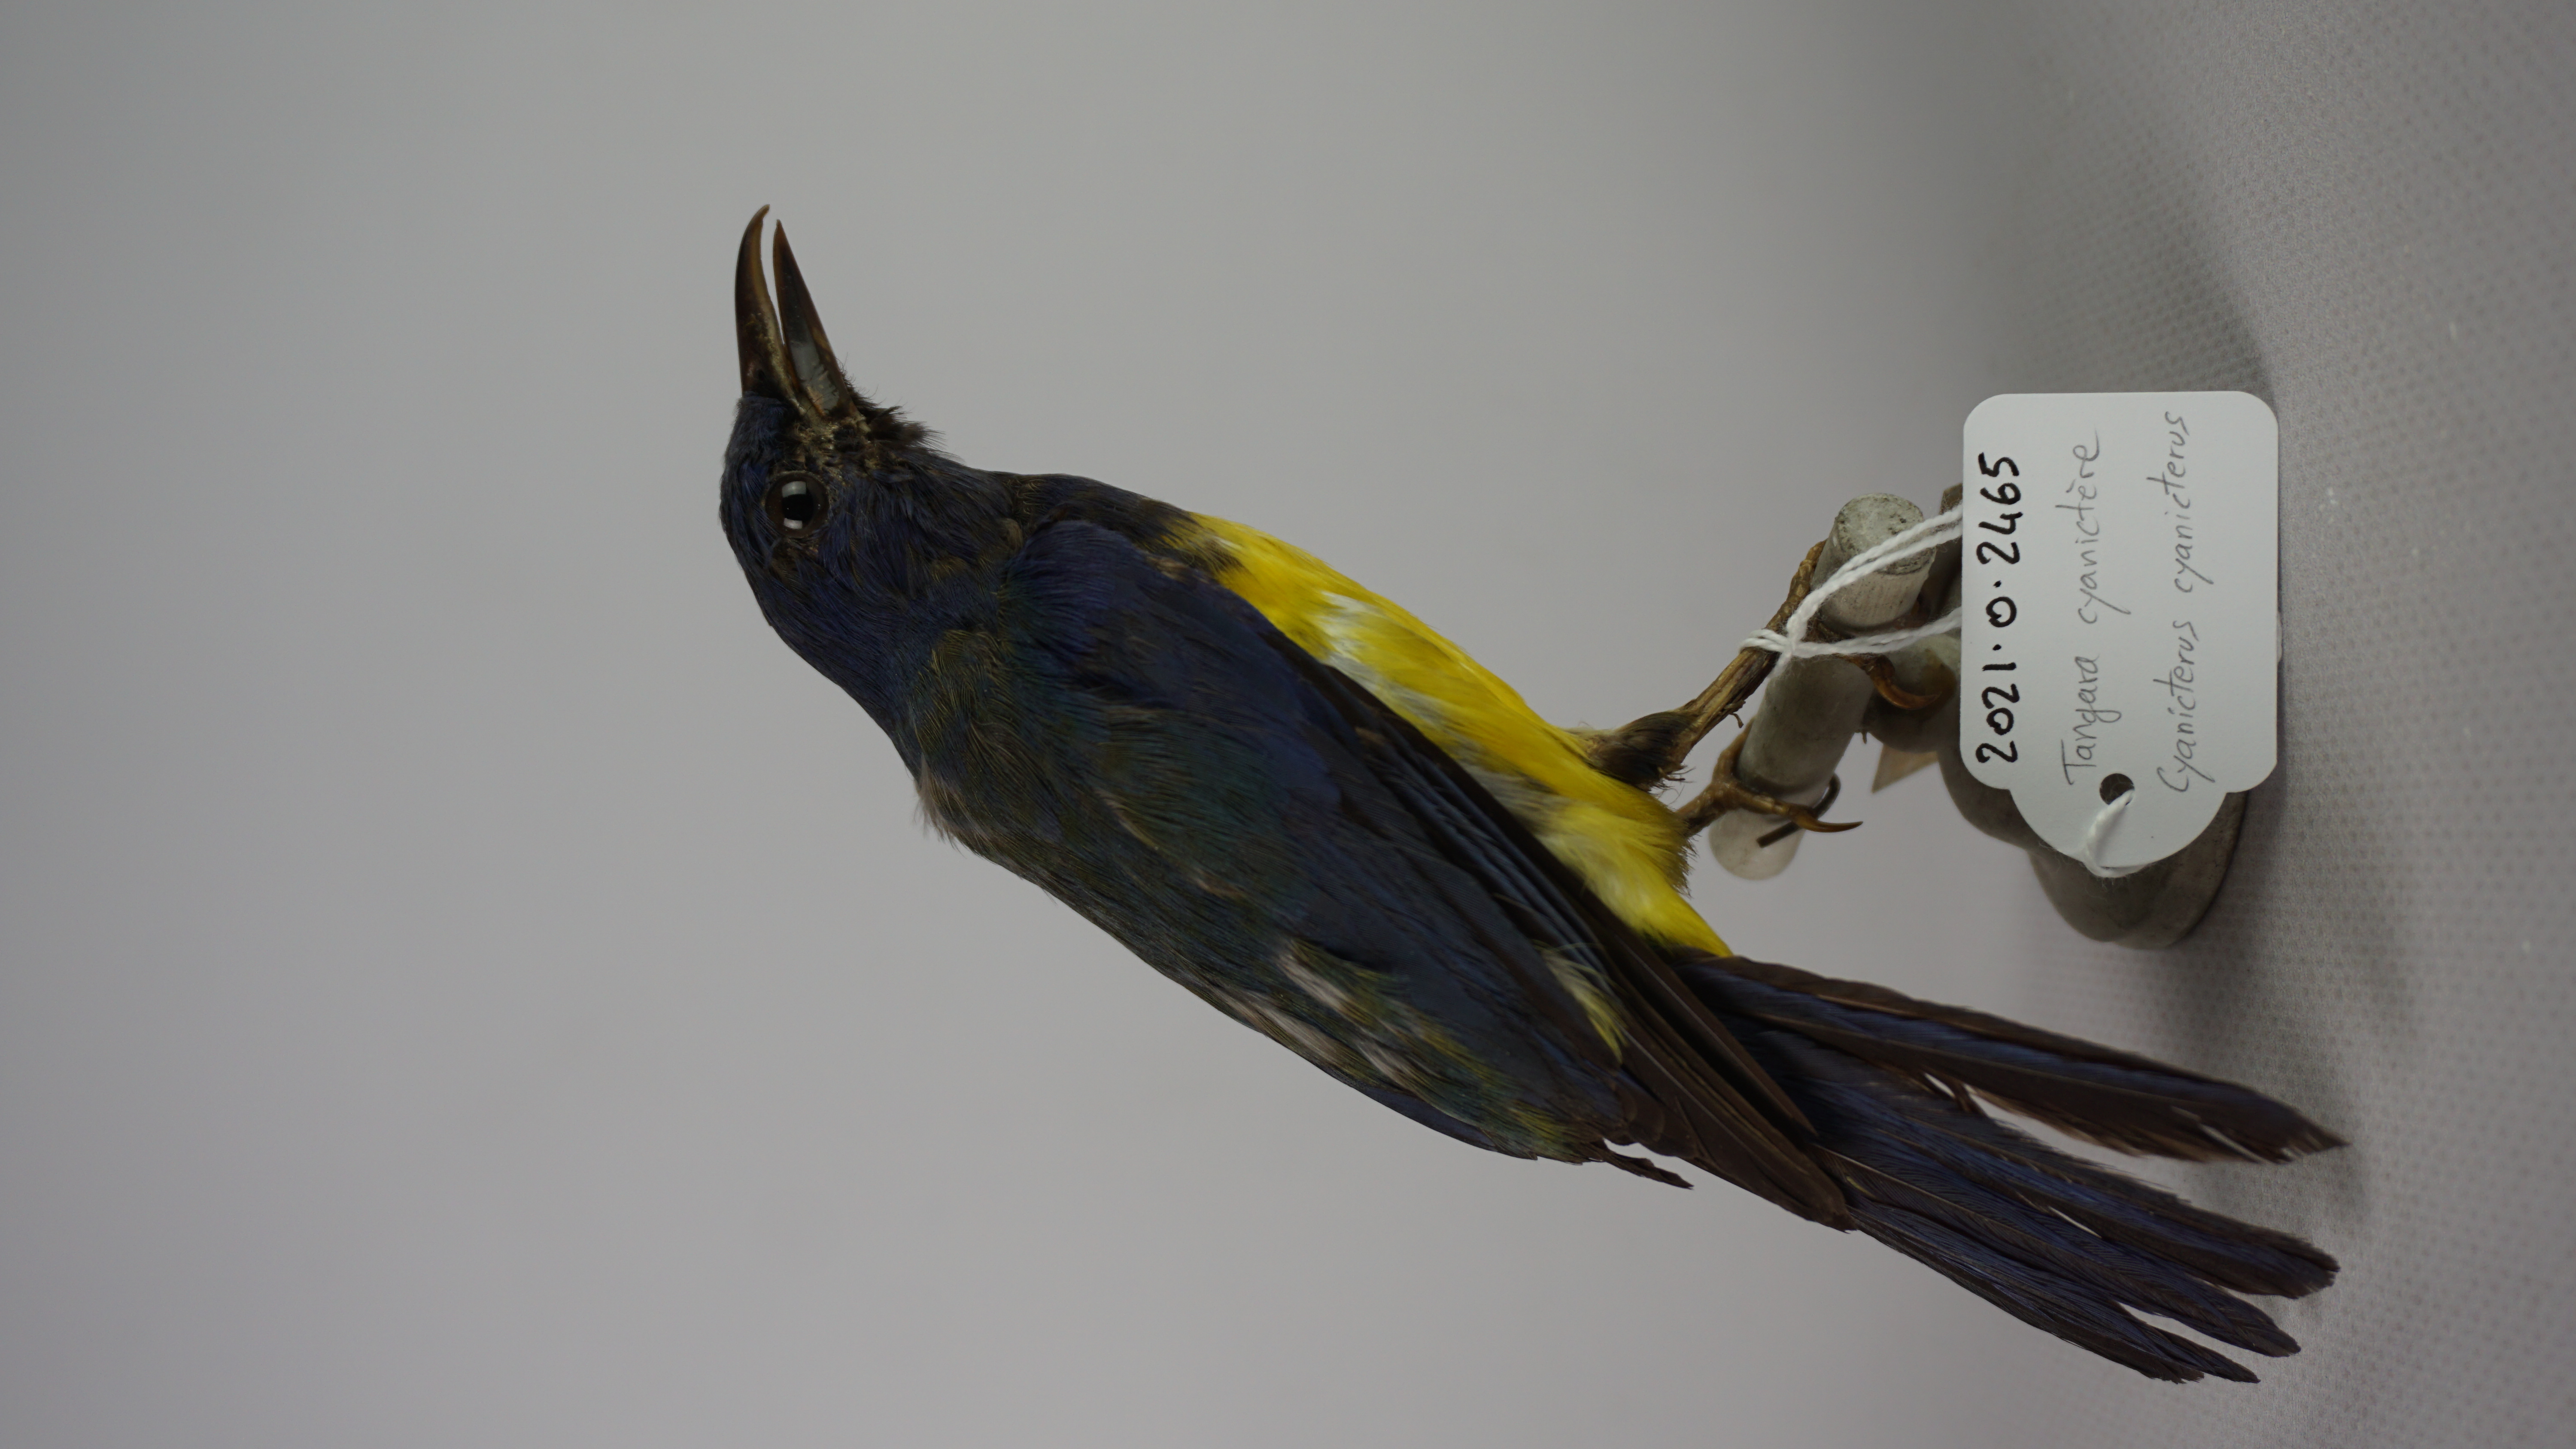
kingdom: Animalia
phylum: Chordata
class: Aves
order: Passeriformes
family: Thraupidae
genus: Cyanicterus
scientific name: Cyanicterus cyanicterus
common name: Blue-backed tanager
